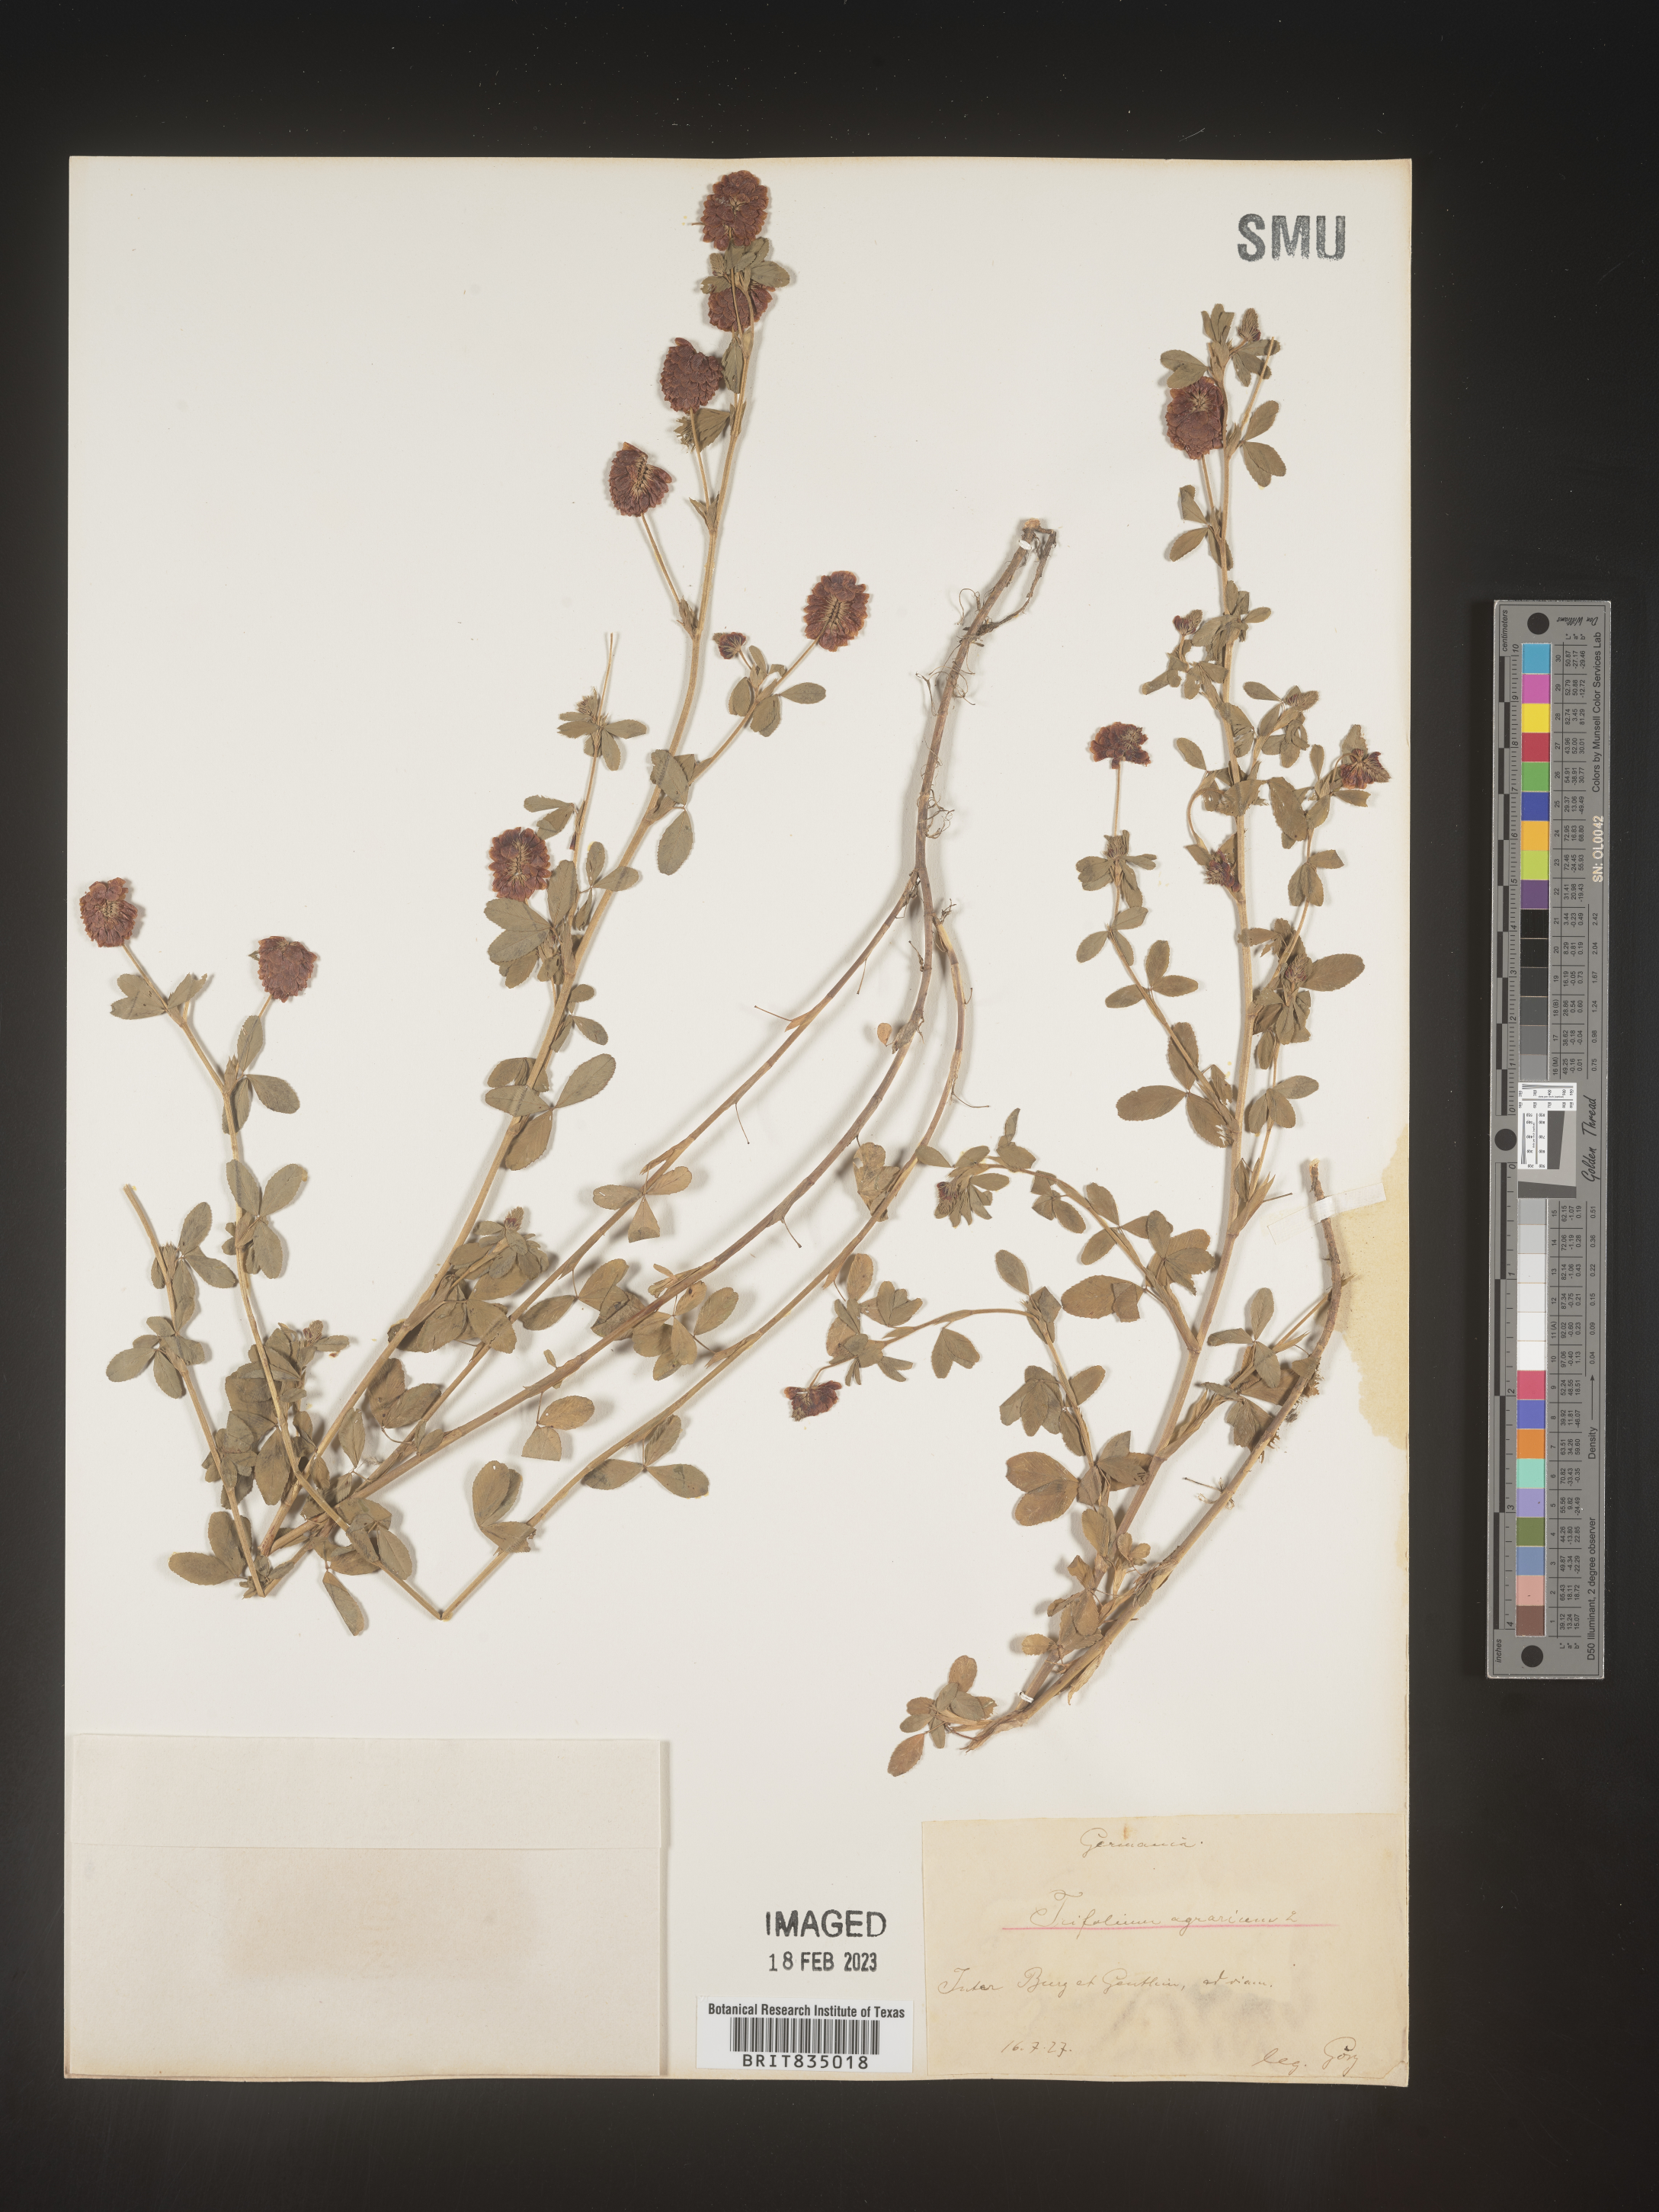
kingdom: Plantae
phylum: Tracheophyta
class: Magnoliopsida
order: Fabales
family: Fabaceae
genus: Trifolium
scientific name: Trifolium
